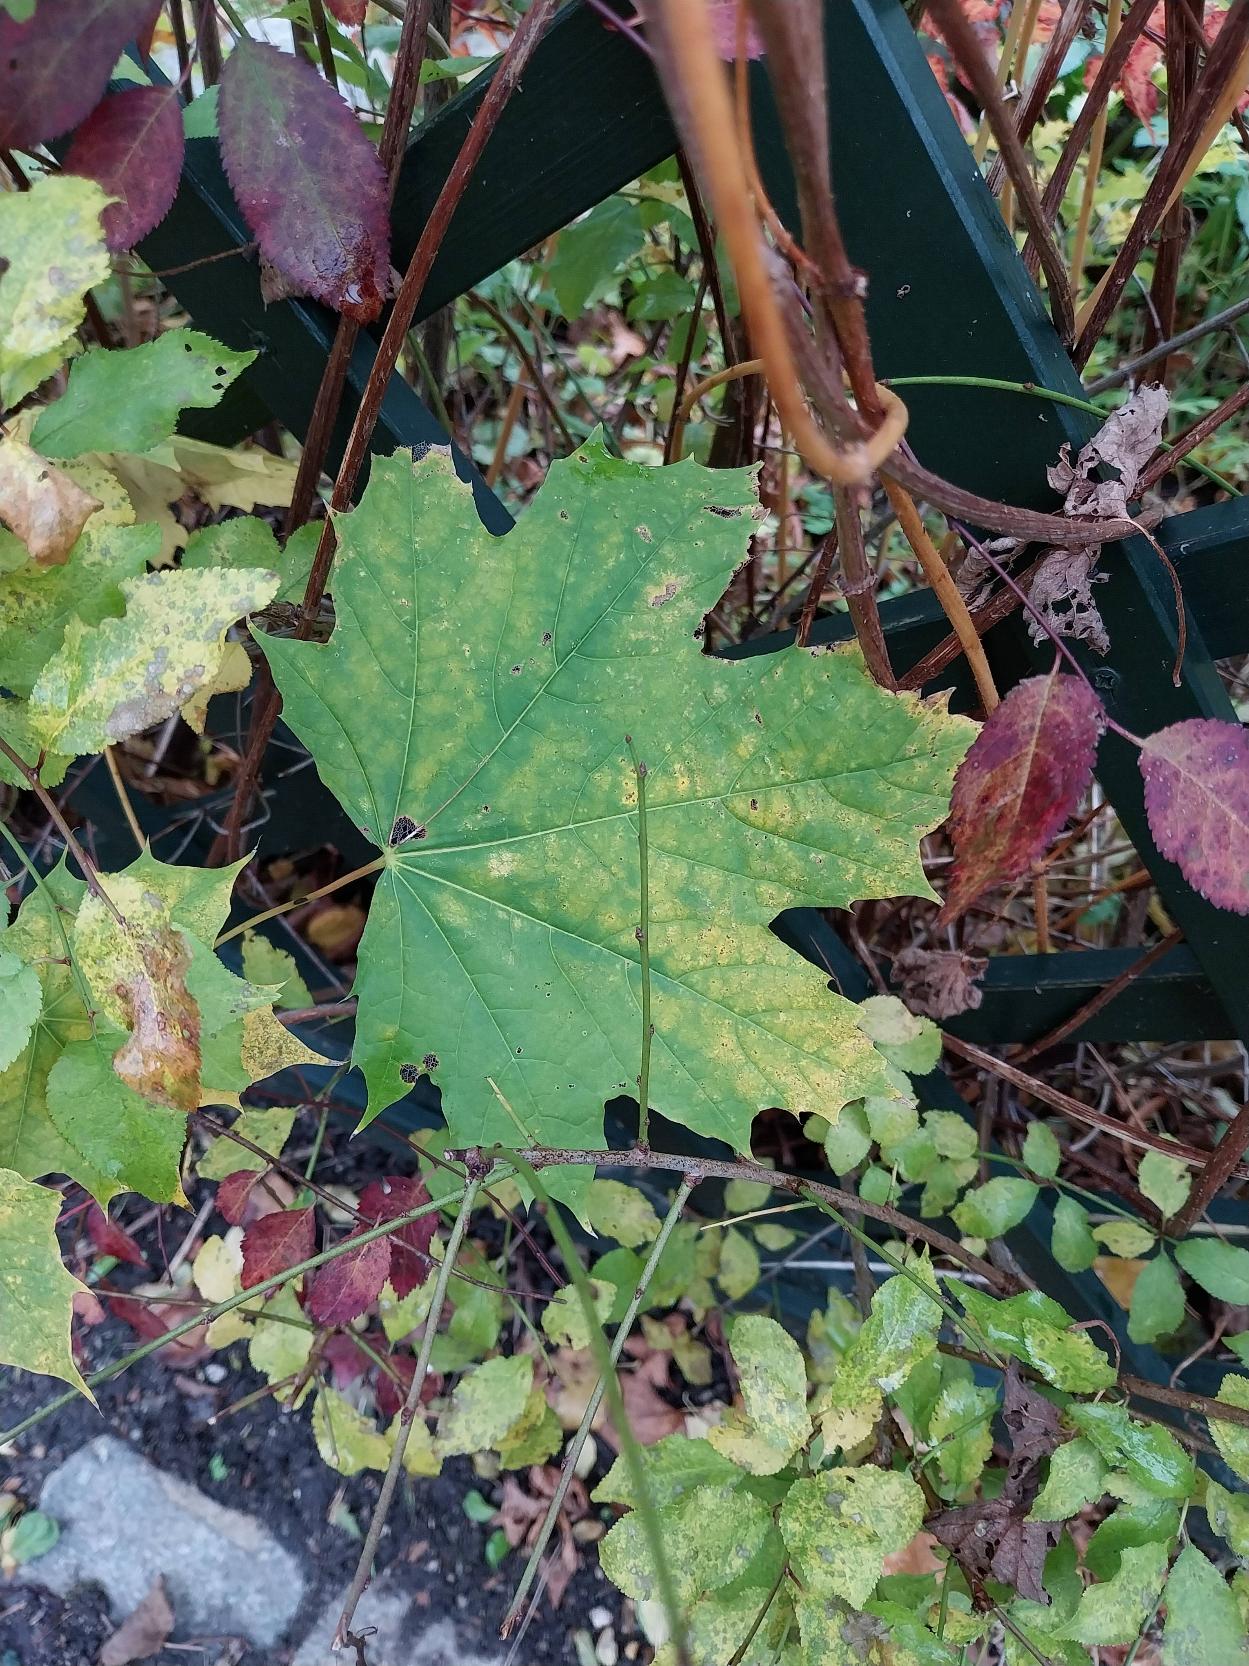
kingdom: Plantae
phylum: Tracheophyta
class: Magnoliopsida
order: Sapindales
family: Sapindaceae
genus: Acer
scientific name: Acer platanoides
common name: Spids-løn
